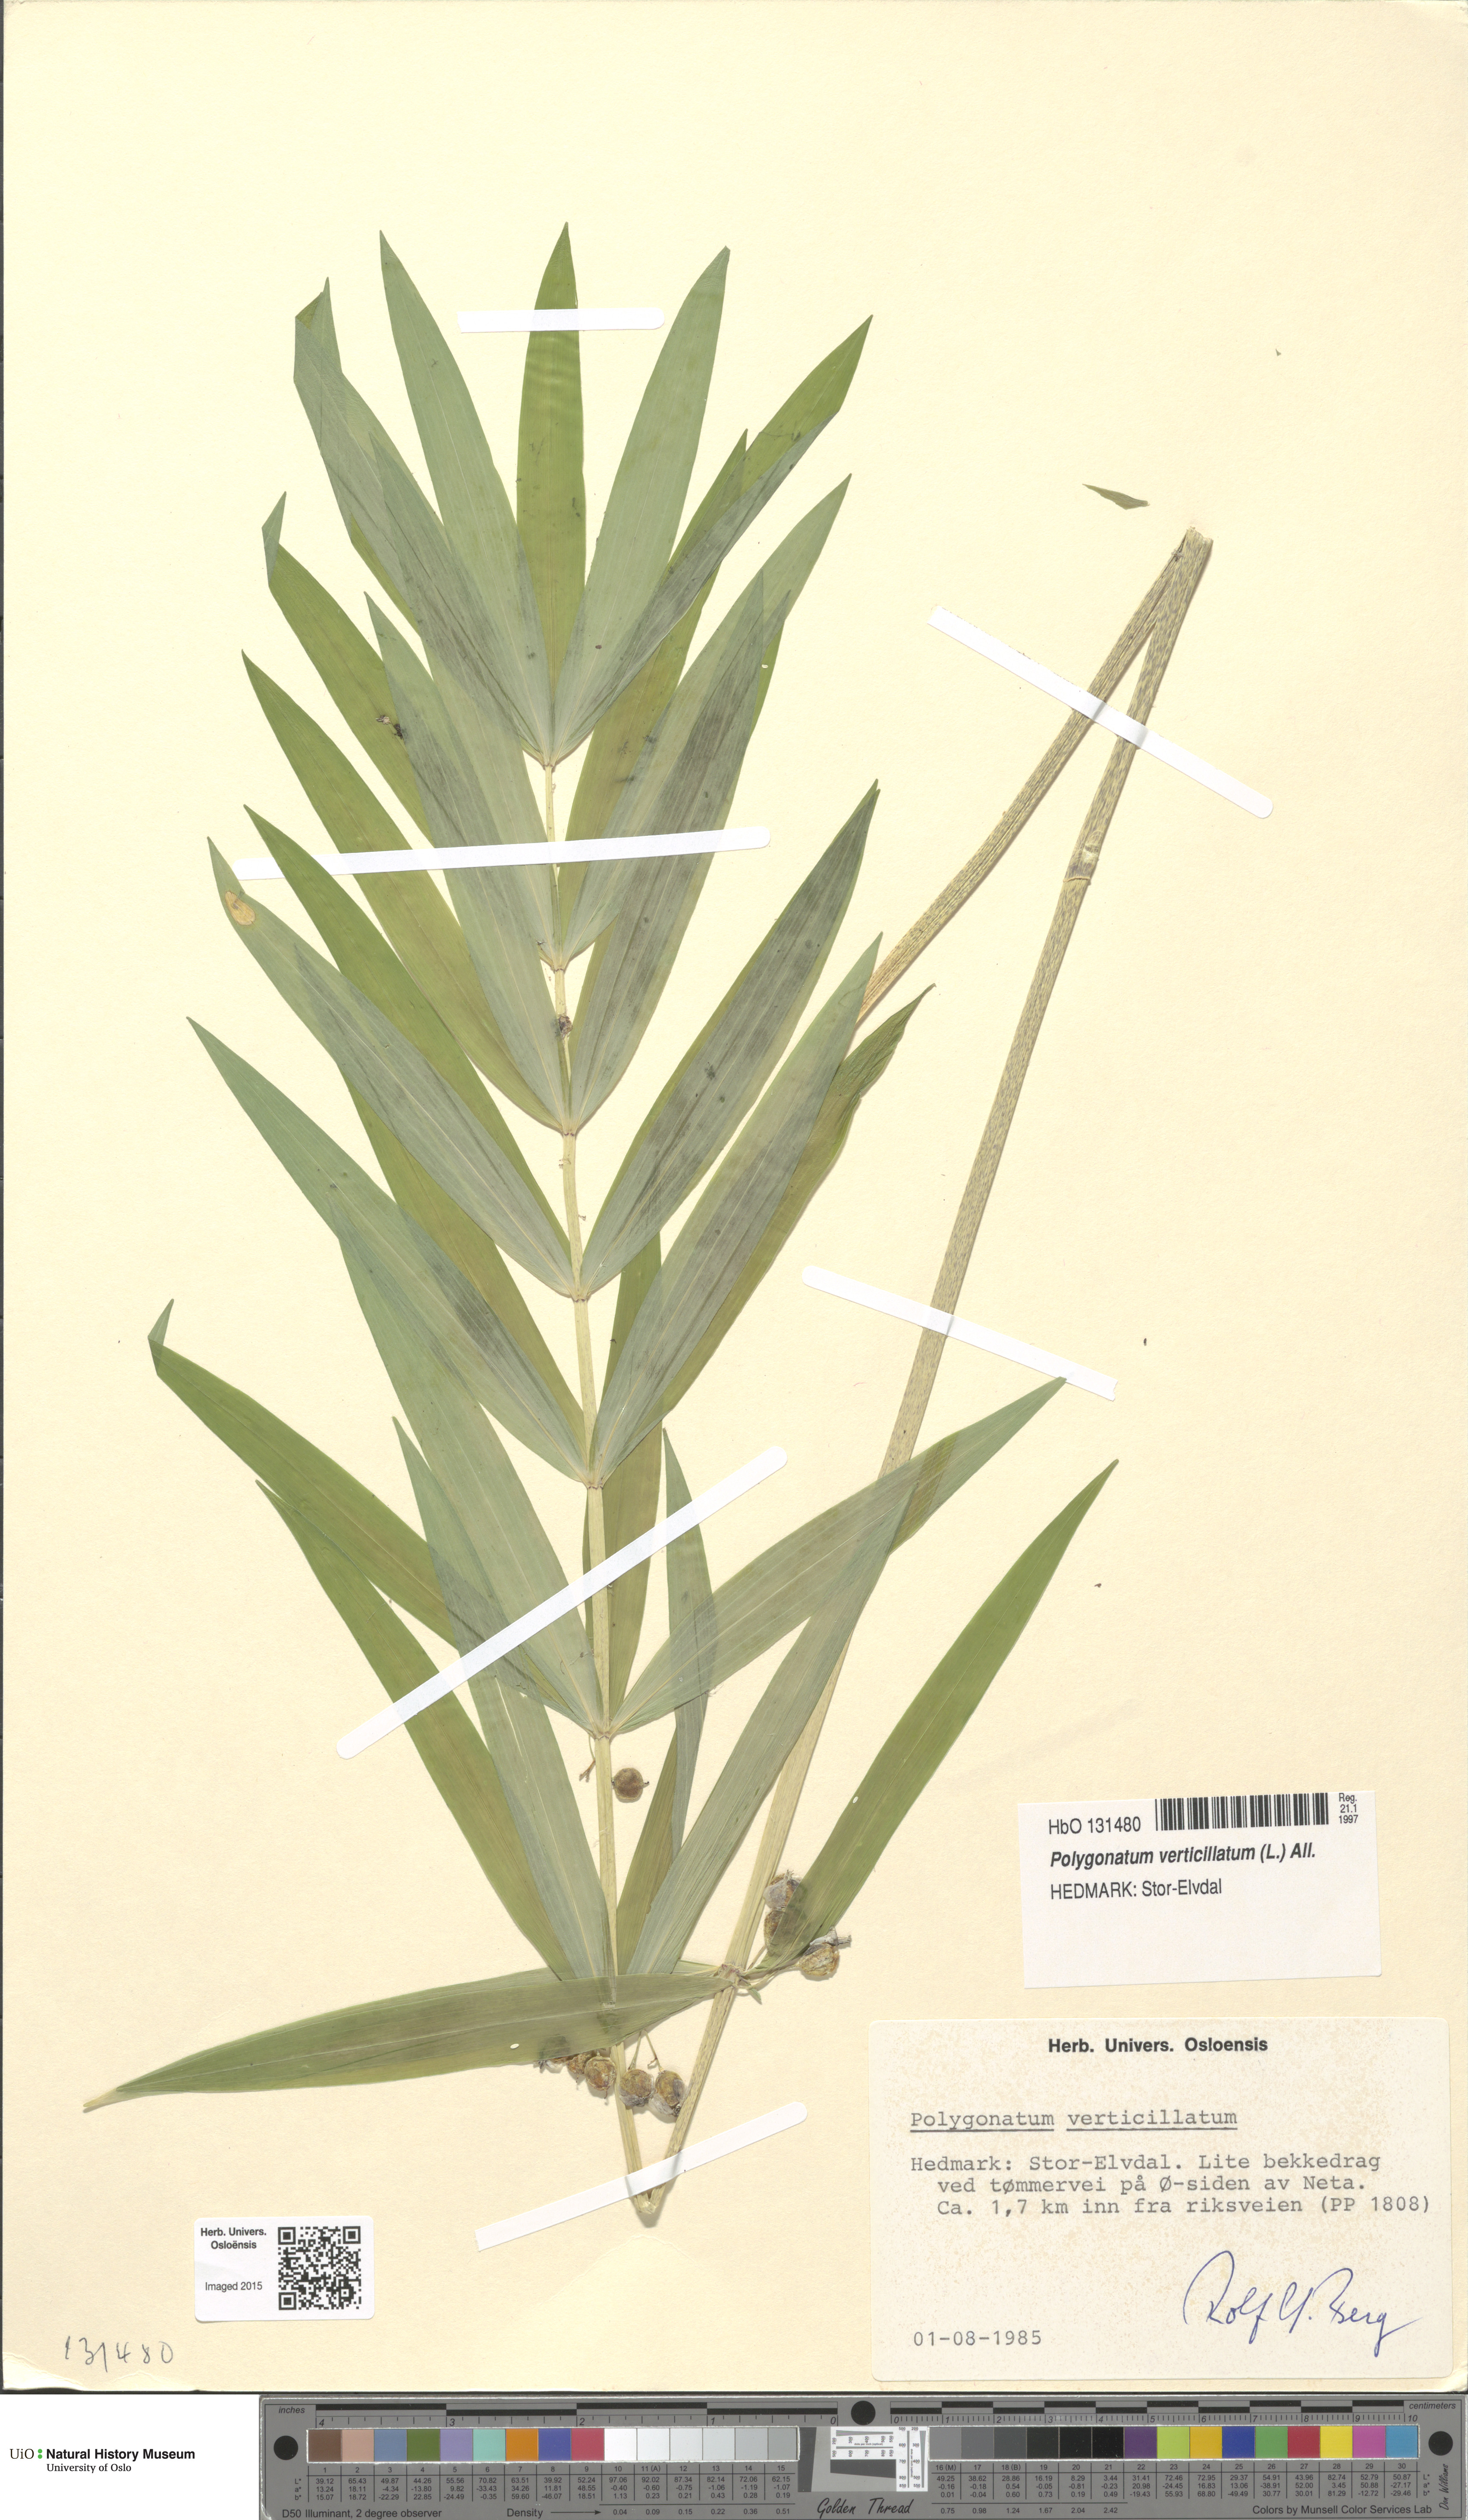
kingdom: Plantae
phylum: Tracheophyta
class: Liliopsida
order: Asparagales
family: Asparagaceae
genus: Polygonatum
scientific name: Polygonatum verticillatum
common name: Whorled solomon's-seal
